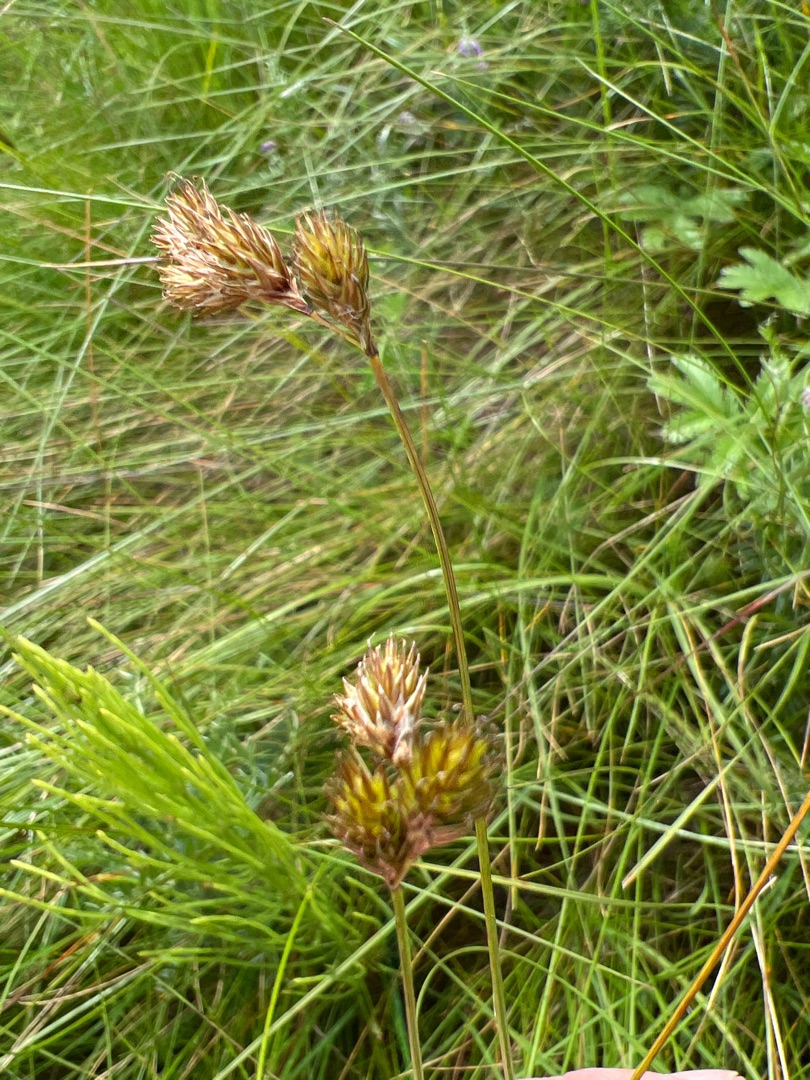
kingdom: Plantae
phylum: Tracheophyta
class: Liliopsida
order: Poales
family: Cyperaceae
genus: Carex
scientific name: Carex leporina
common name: Hare-star
